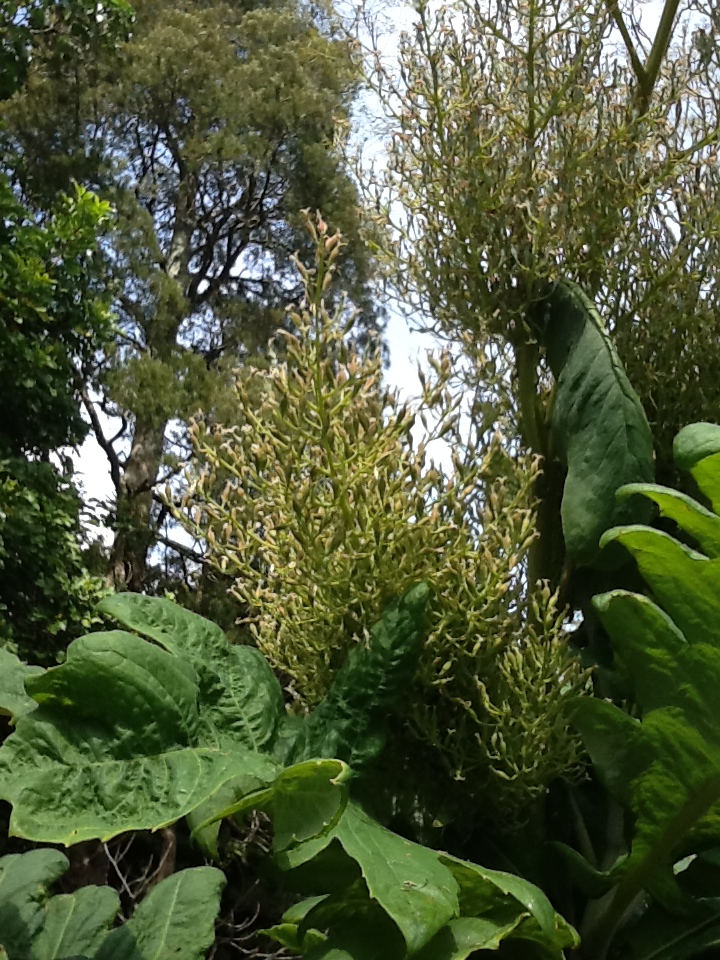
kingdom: Plantae
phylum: Tracheophyta
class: Magnoliopsida
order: Ranunculales
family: Papaveraceae
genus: Bocconia
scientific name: Bocconia frutescens
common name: Tree poppy
